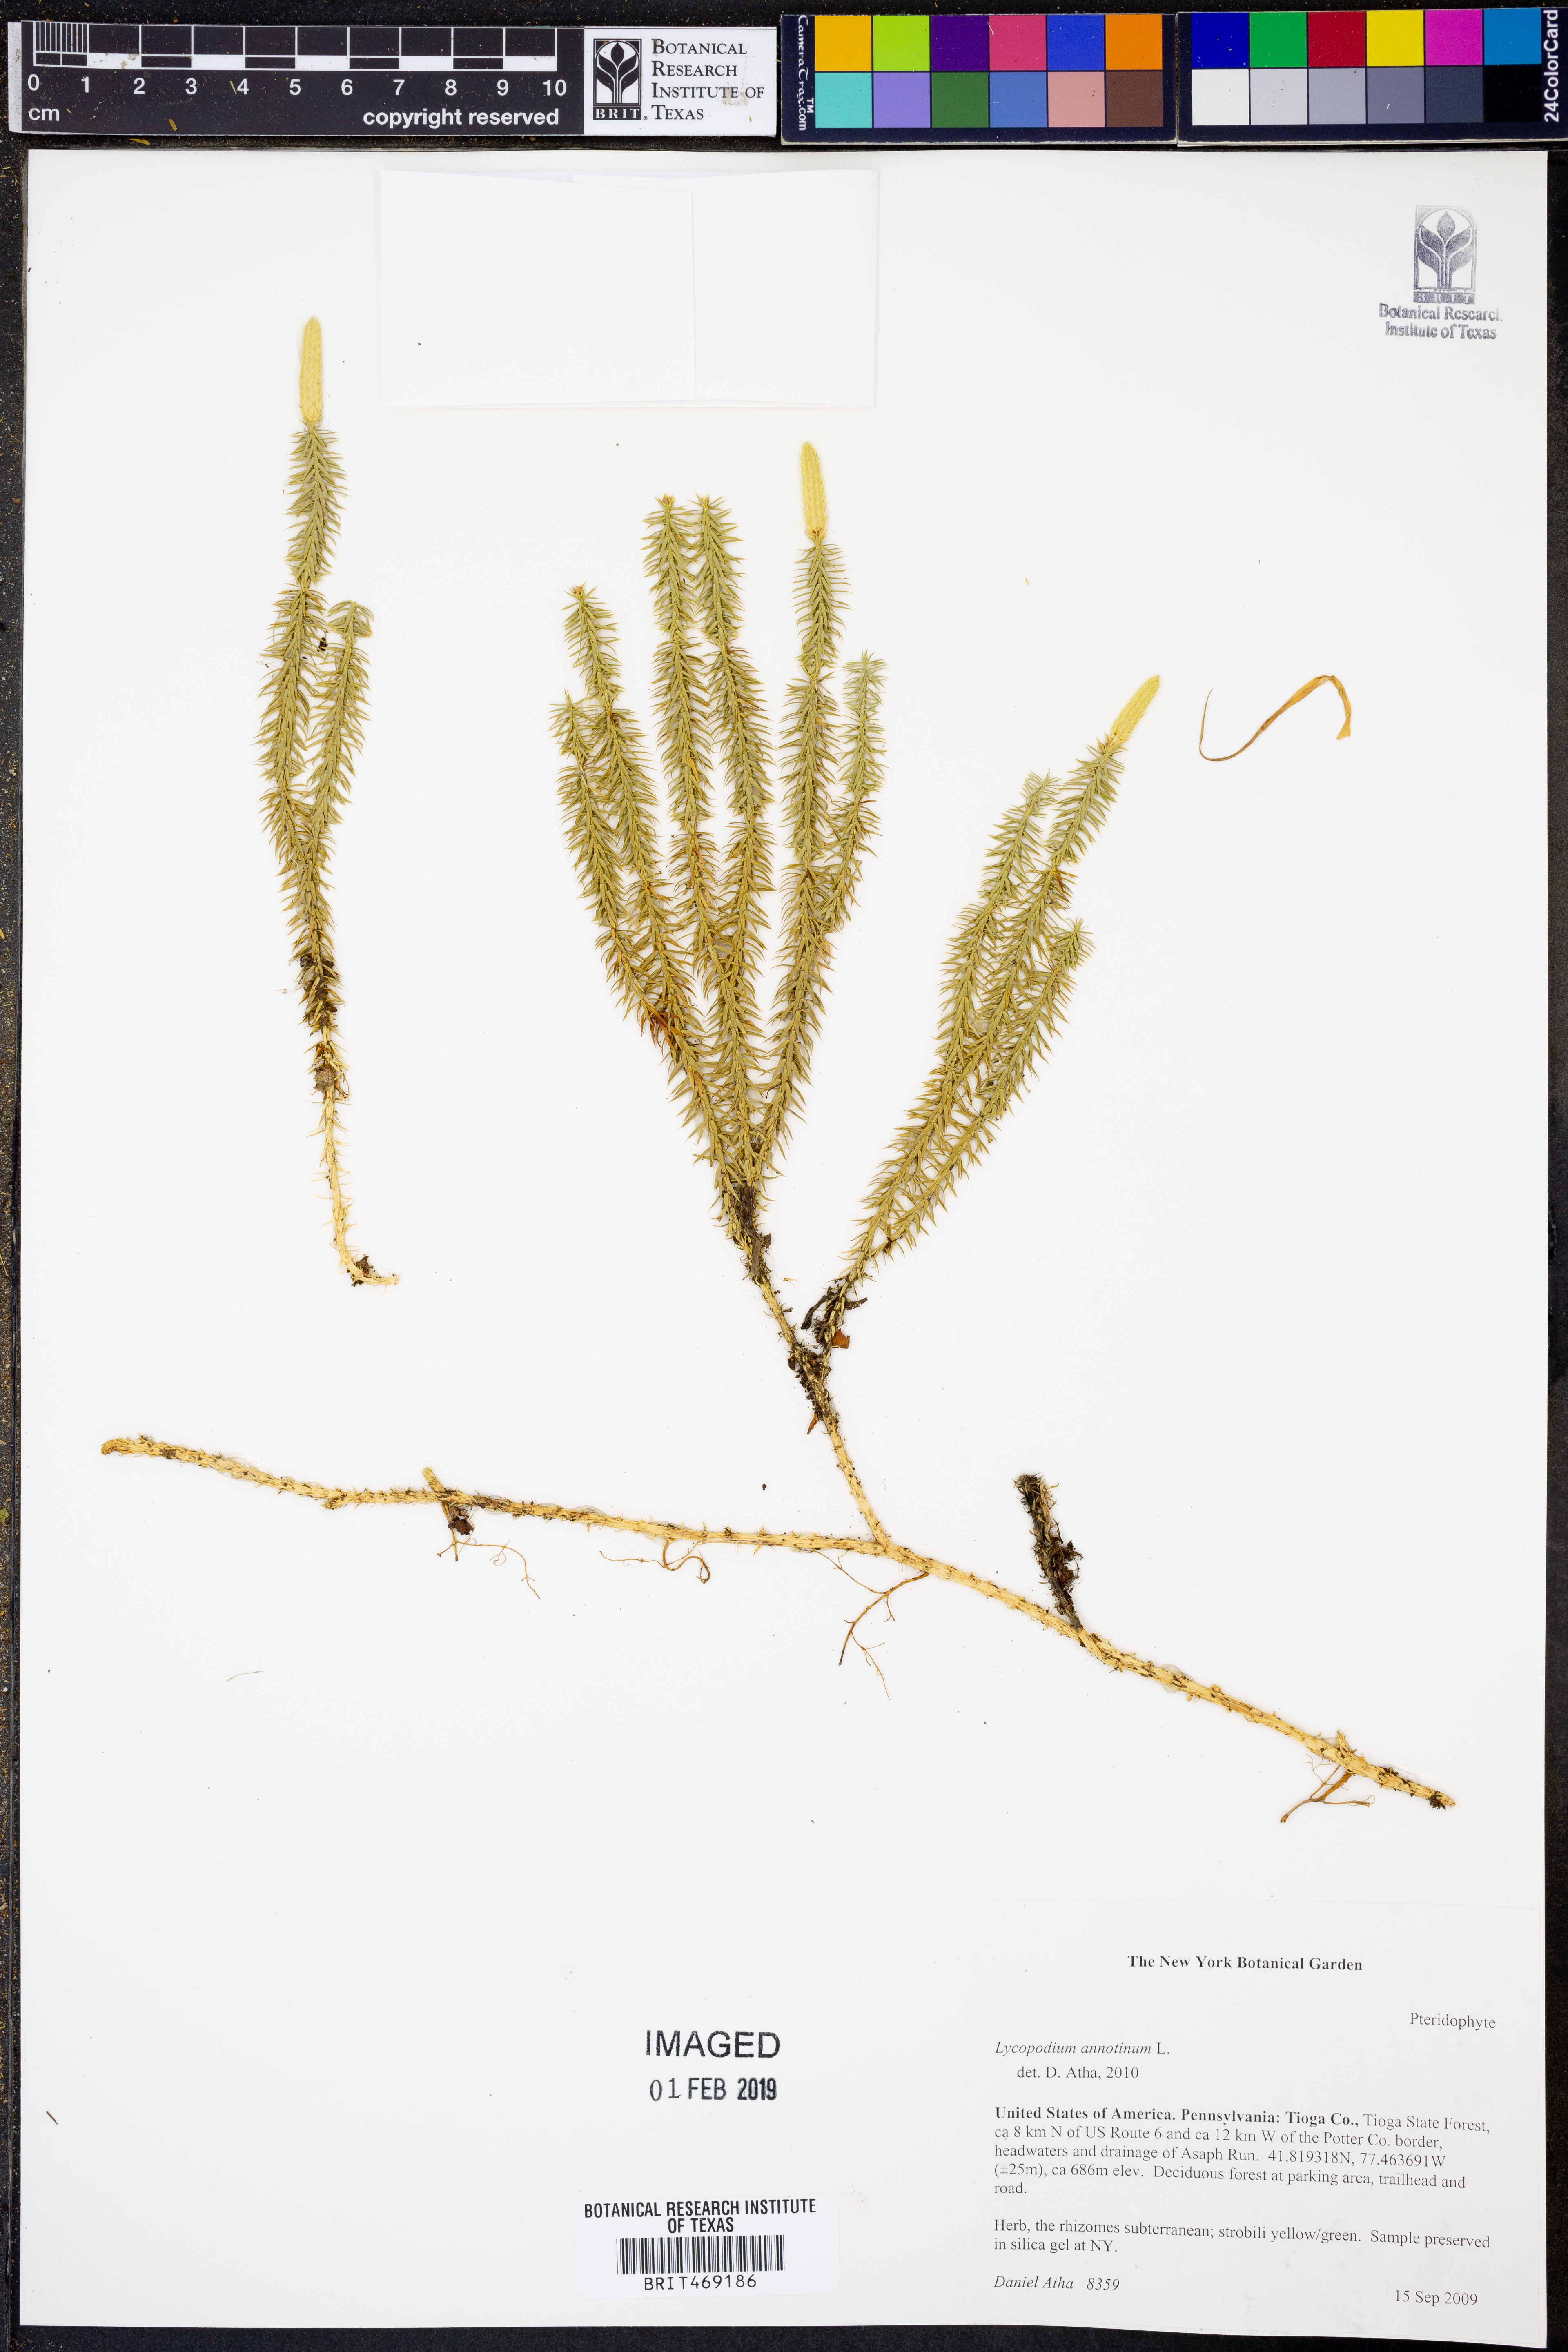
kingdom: Plantae
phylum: Tracheophyta
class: Lycopodiopsida
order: Lycopodiales
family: Lycopodiaceae
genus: Spinulum
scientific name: Spinulum annotinum
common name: Interrupted club-moss
